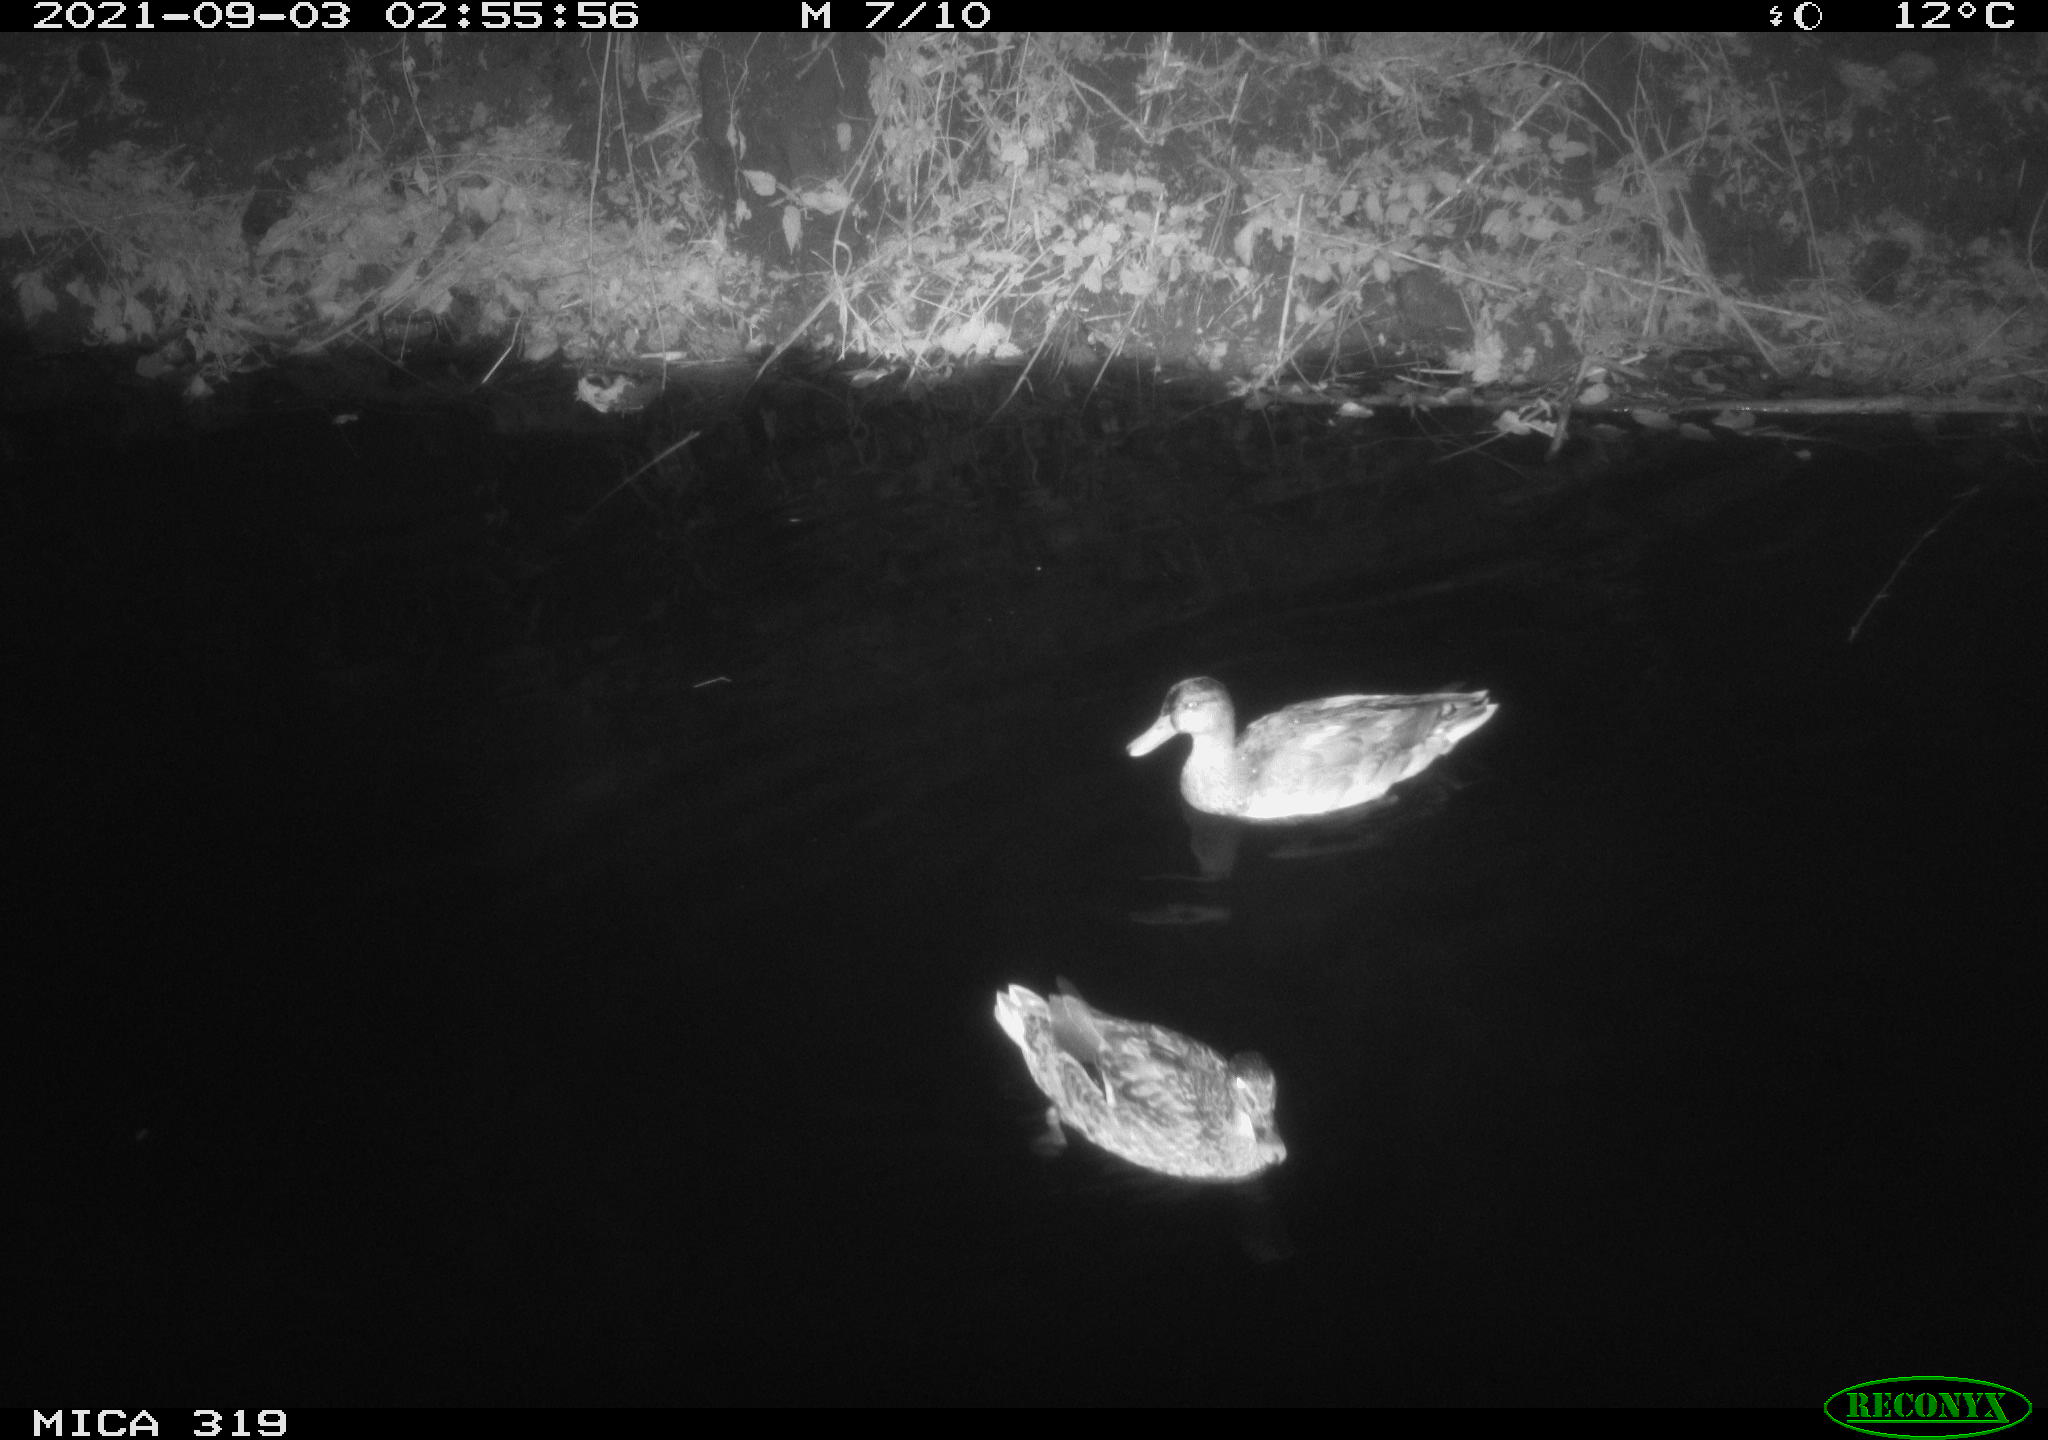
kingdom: Animalia
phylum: Chordata
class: Aves
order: Anseriformes
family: Anatidae
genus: Anas
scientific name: Anas platyrhynchos
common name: Mallard
